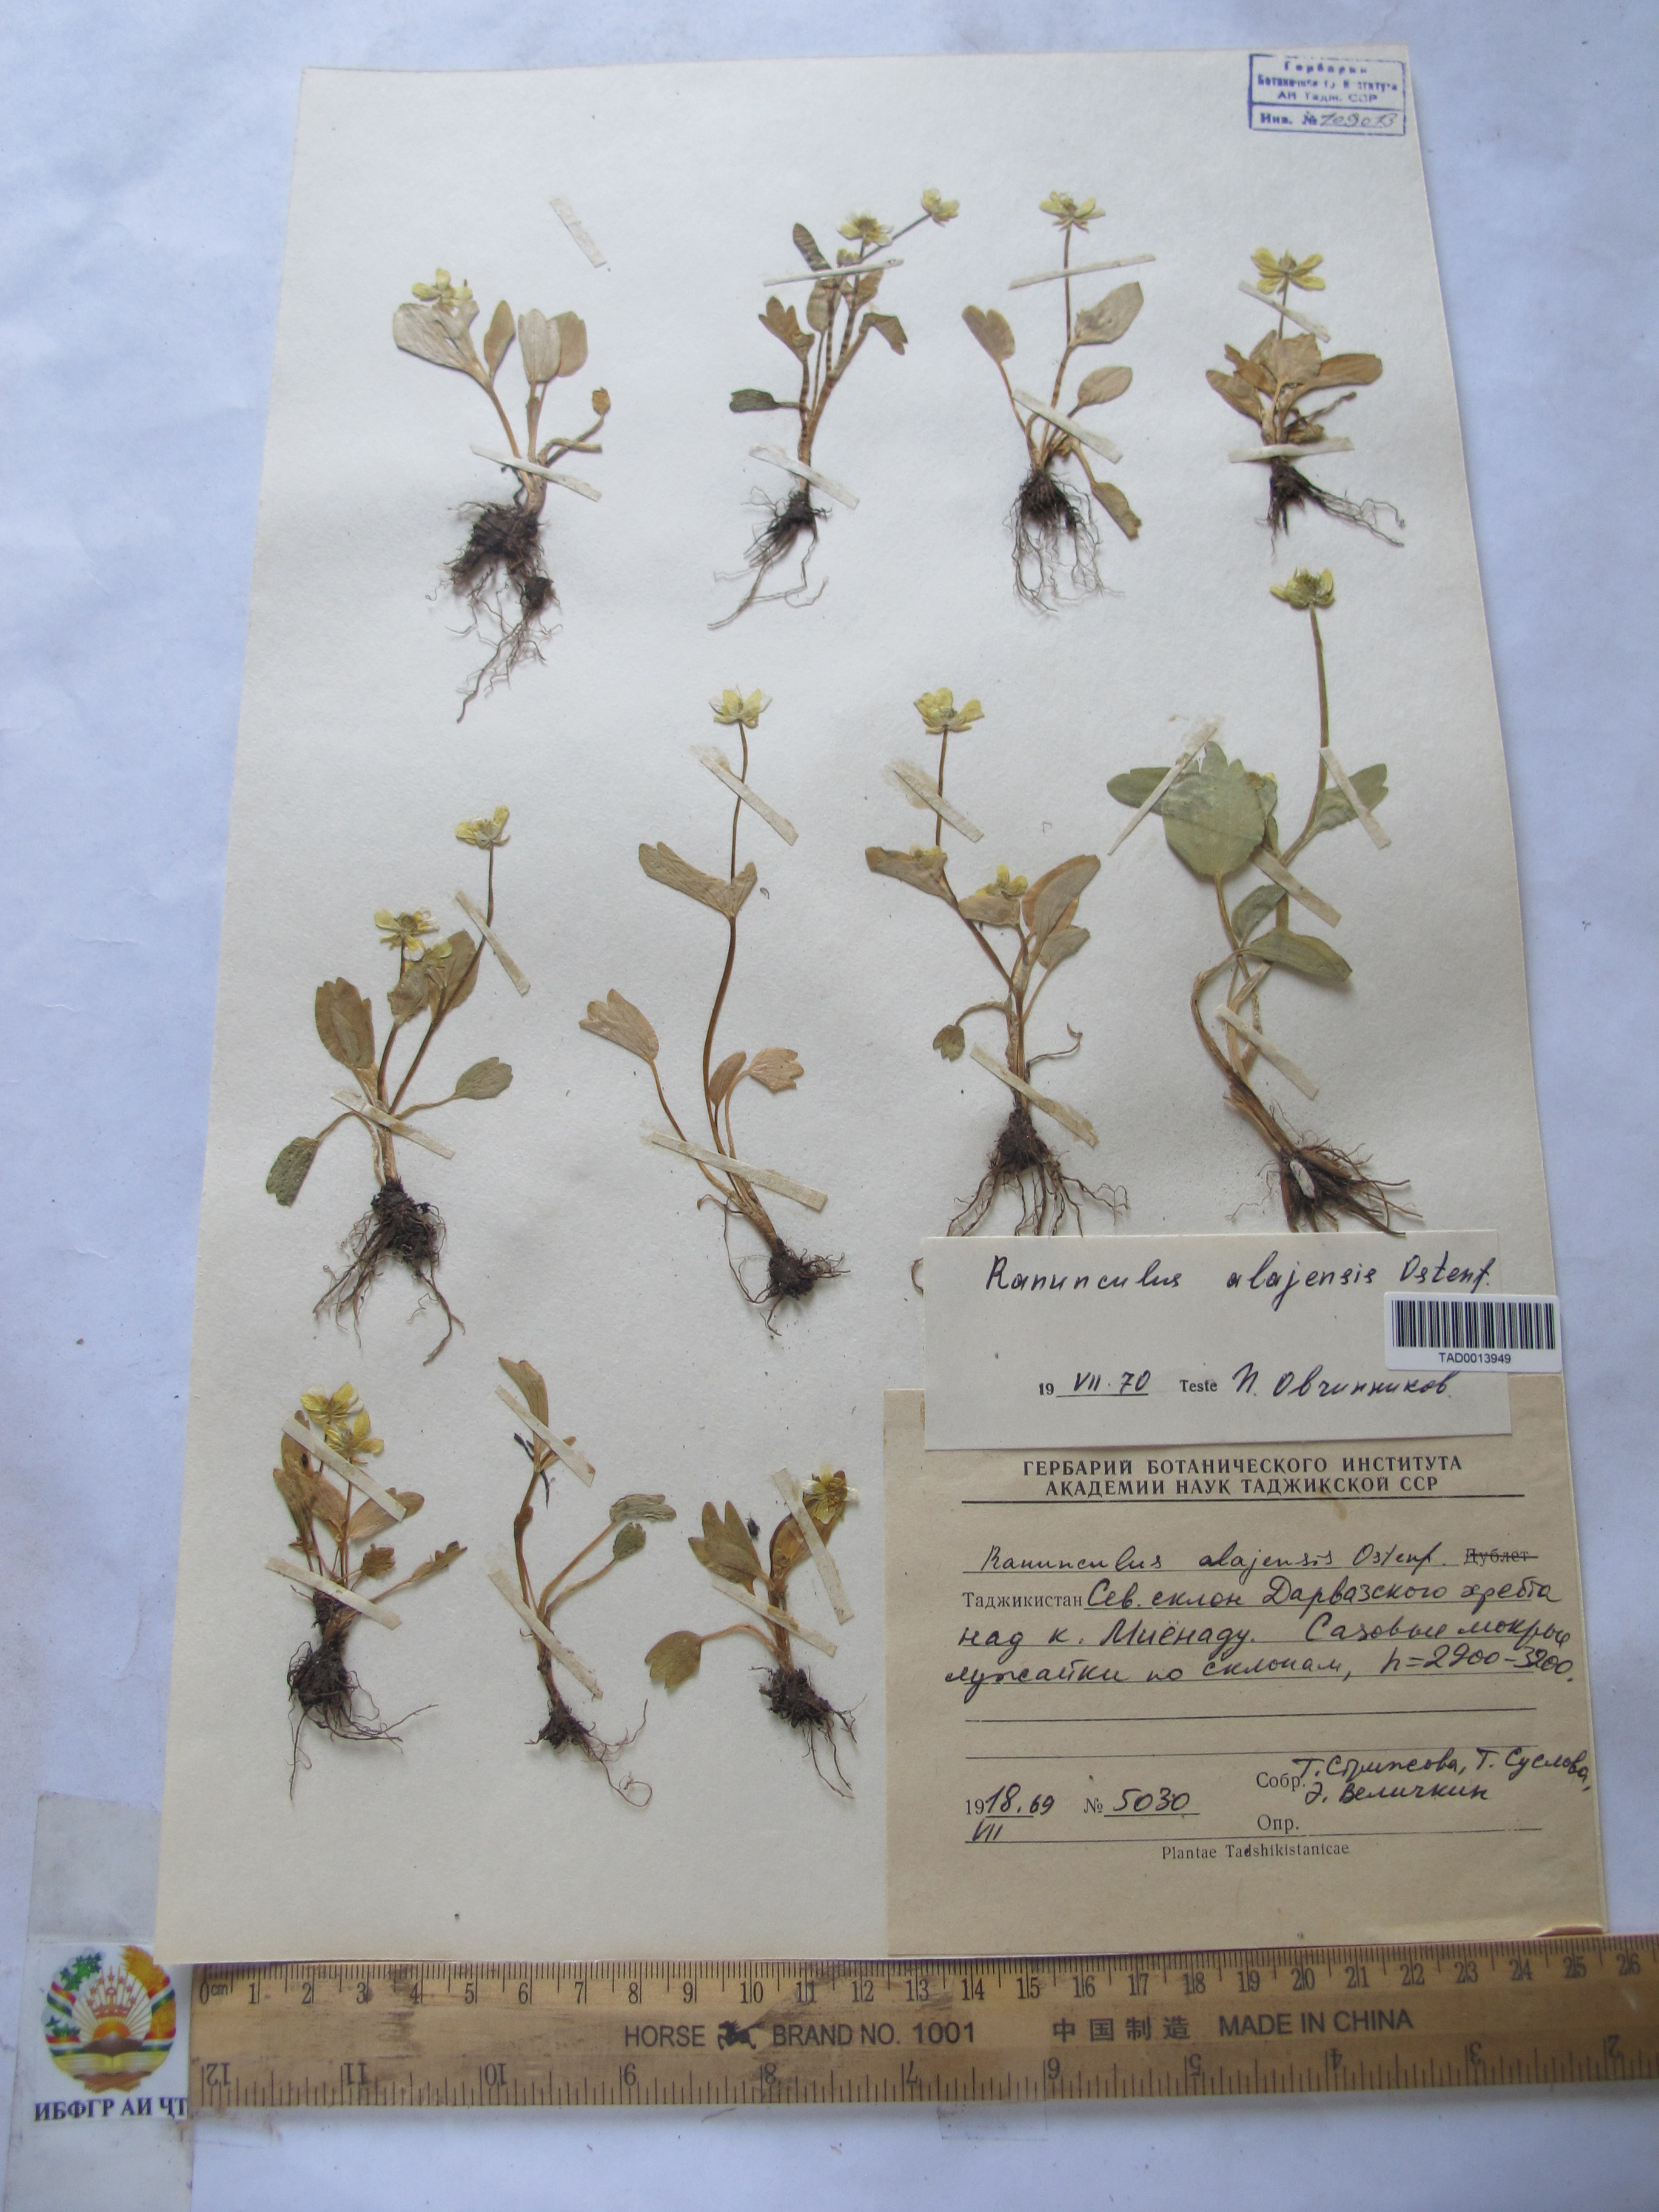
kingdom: Plantae
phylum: Tracheophyta
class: Magnoliopsida
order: Ranunculales
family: Ranunculaceae
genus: Ranunculus
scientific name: Ranunculus alaiensis
